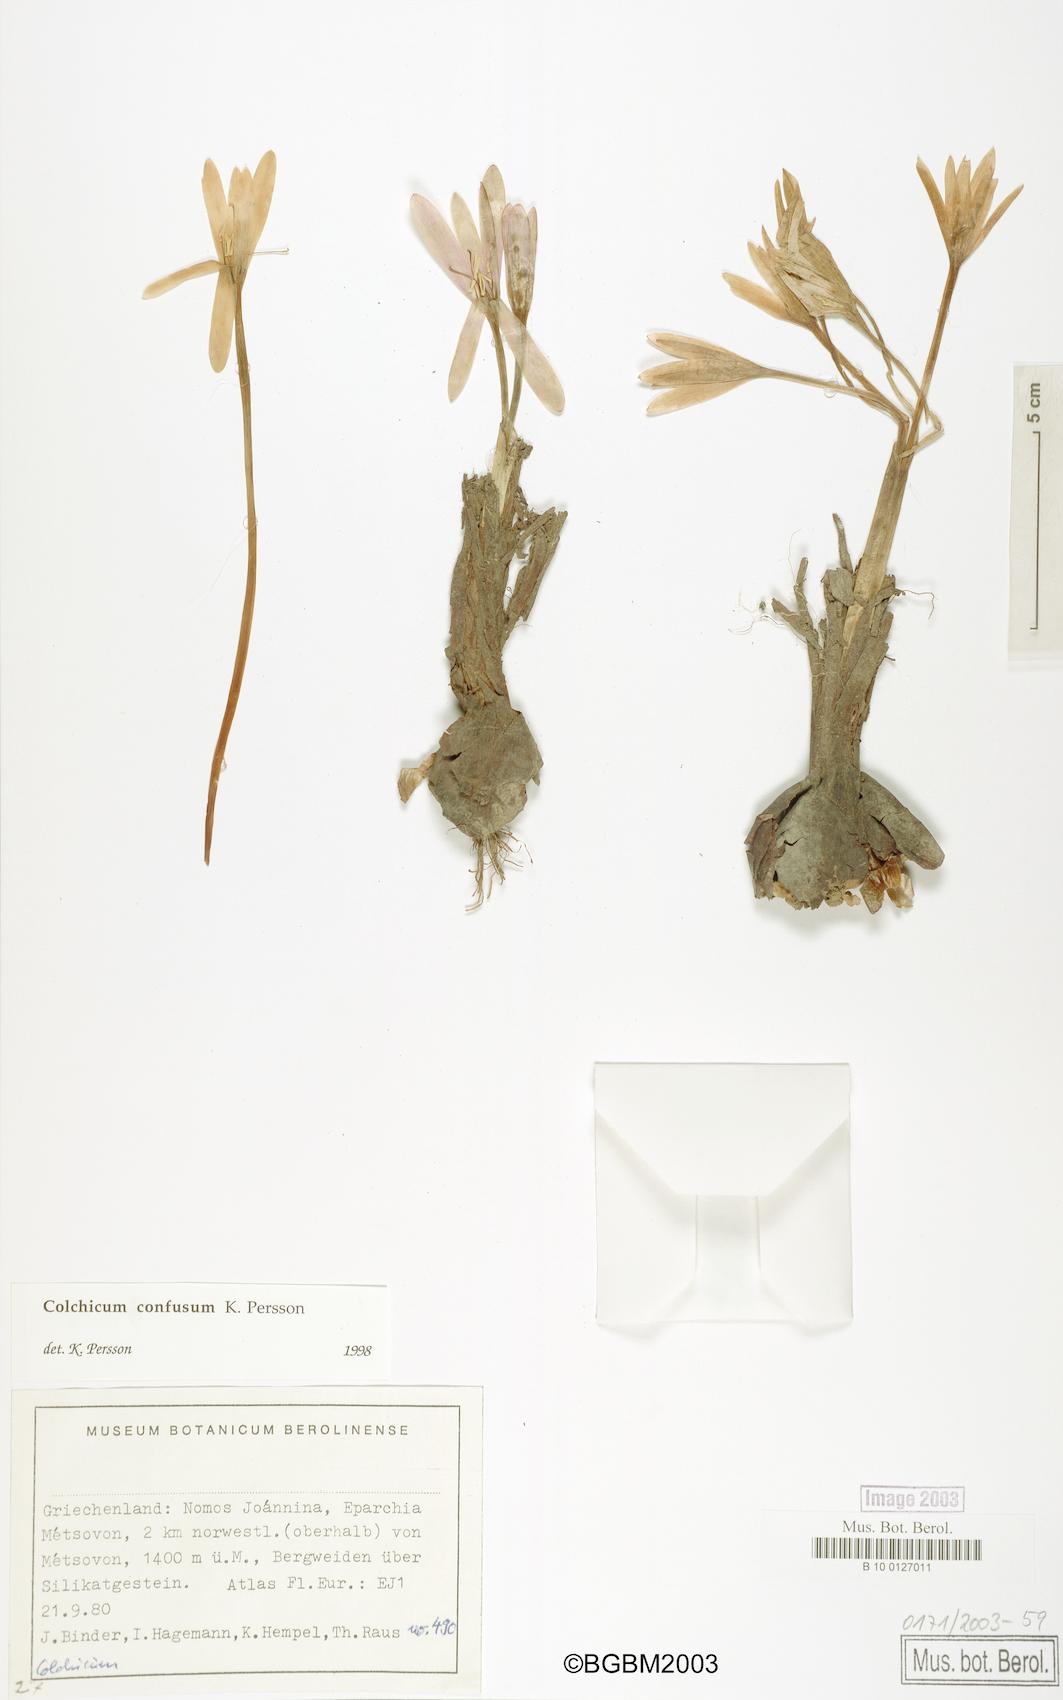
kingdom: Plantae
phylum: Tracheophyta
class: Liliopsida
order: Liliales
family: Colchicaceae
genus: Colchicum
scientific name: Colchicum confusum
